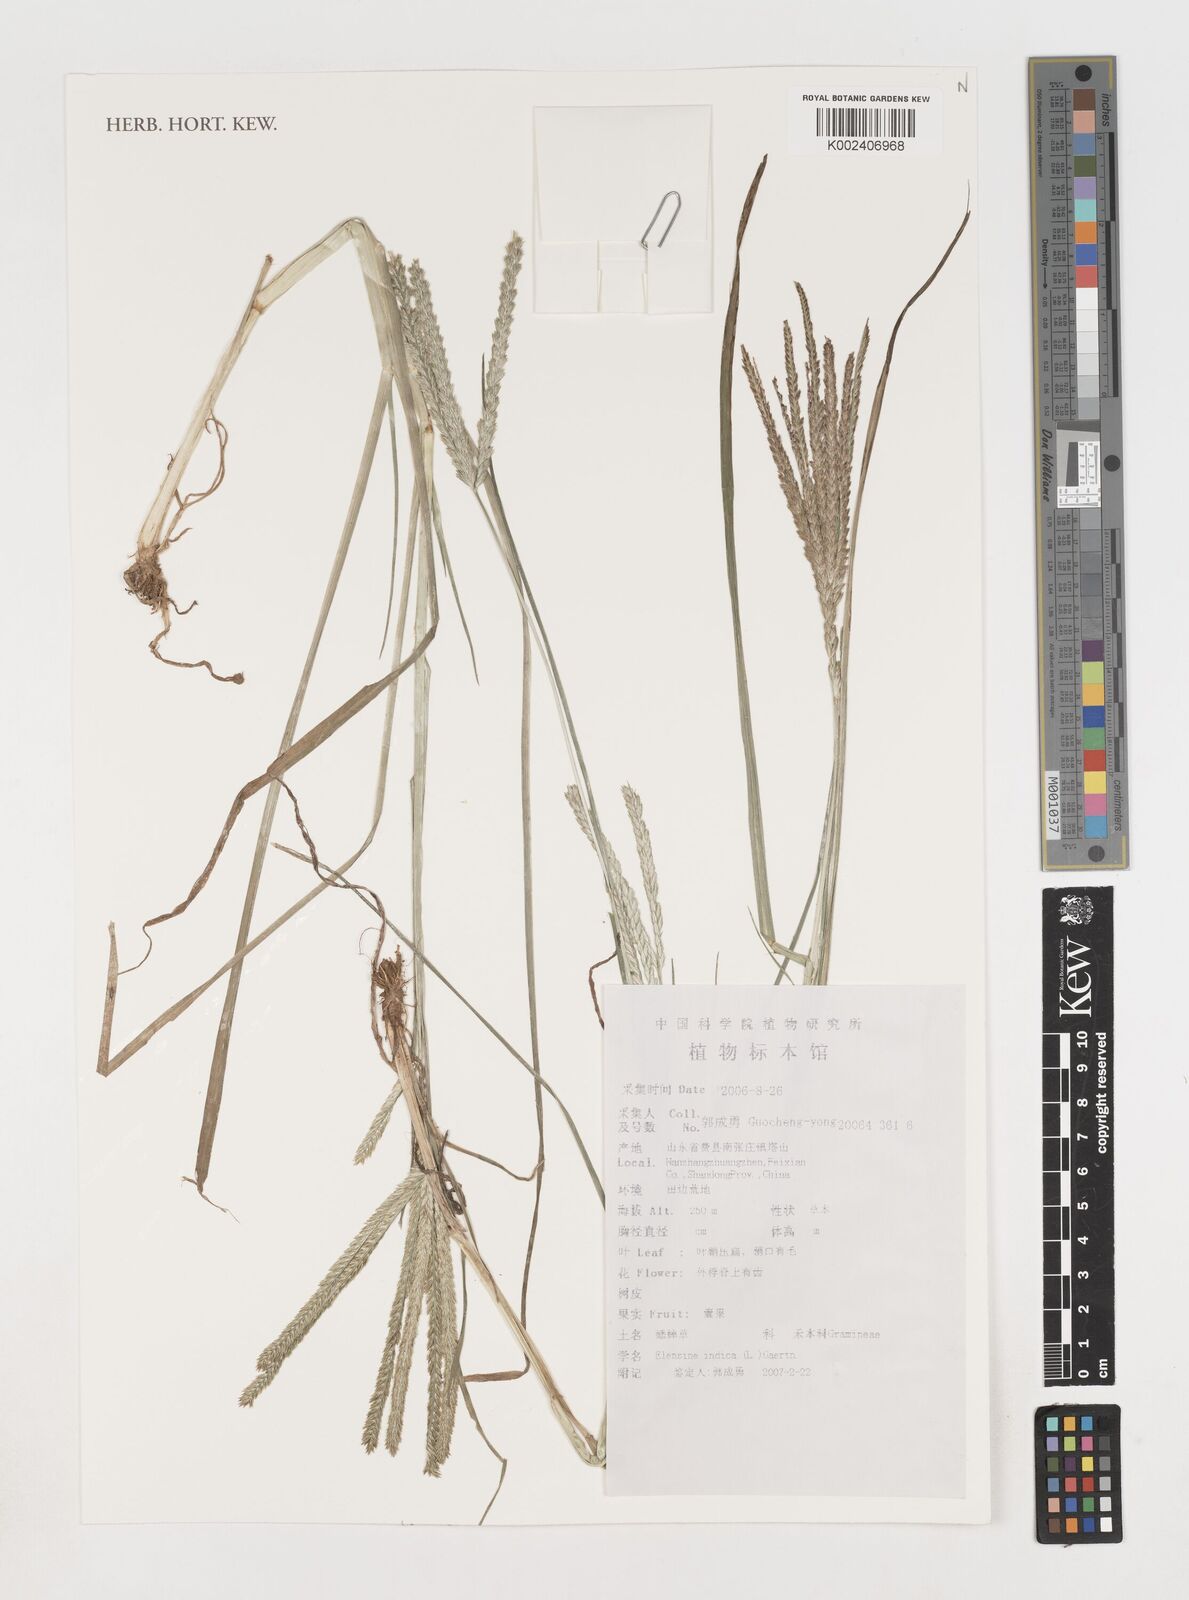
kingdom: Plantae
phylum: Tracheophyta
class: Liliopsida
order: Poales
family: Poaceae
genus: Eleusine
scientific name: Eleusine indica
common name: Yard-grass
